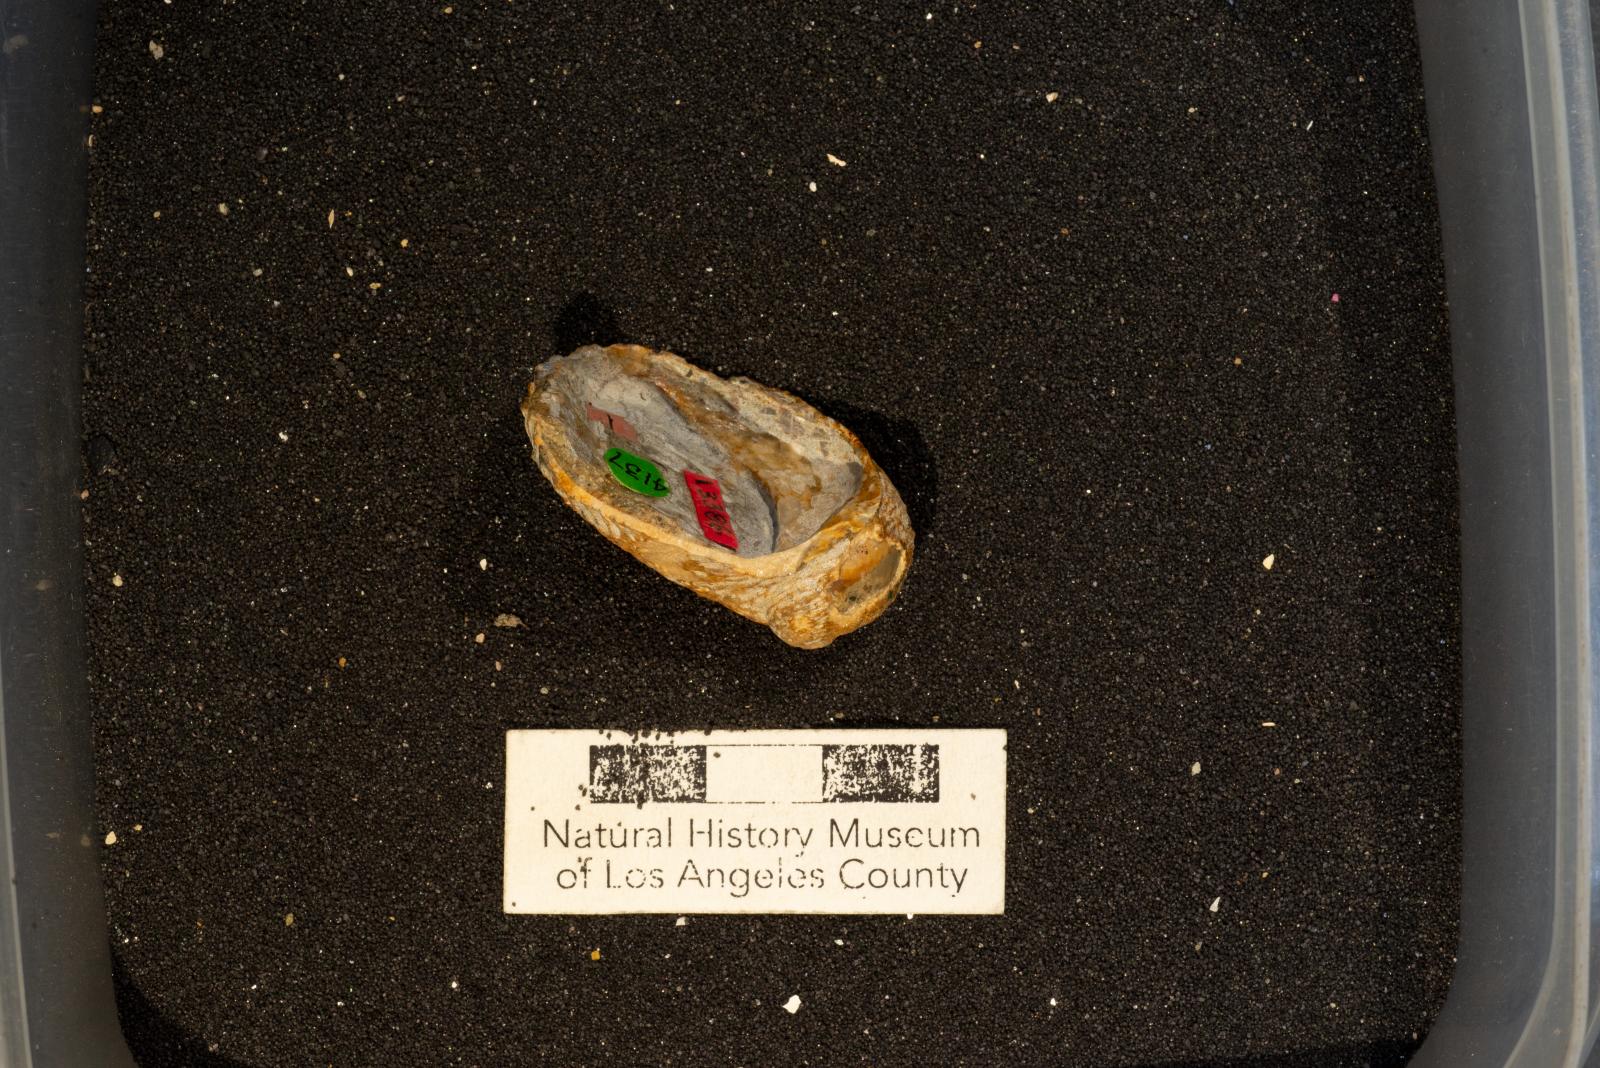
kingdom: Animalia
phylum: Mollusca
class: Gastropoda
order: Littorinimorpha
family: Calyptraeidae
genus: Lysis
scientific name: Lysis jalamaca
